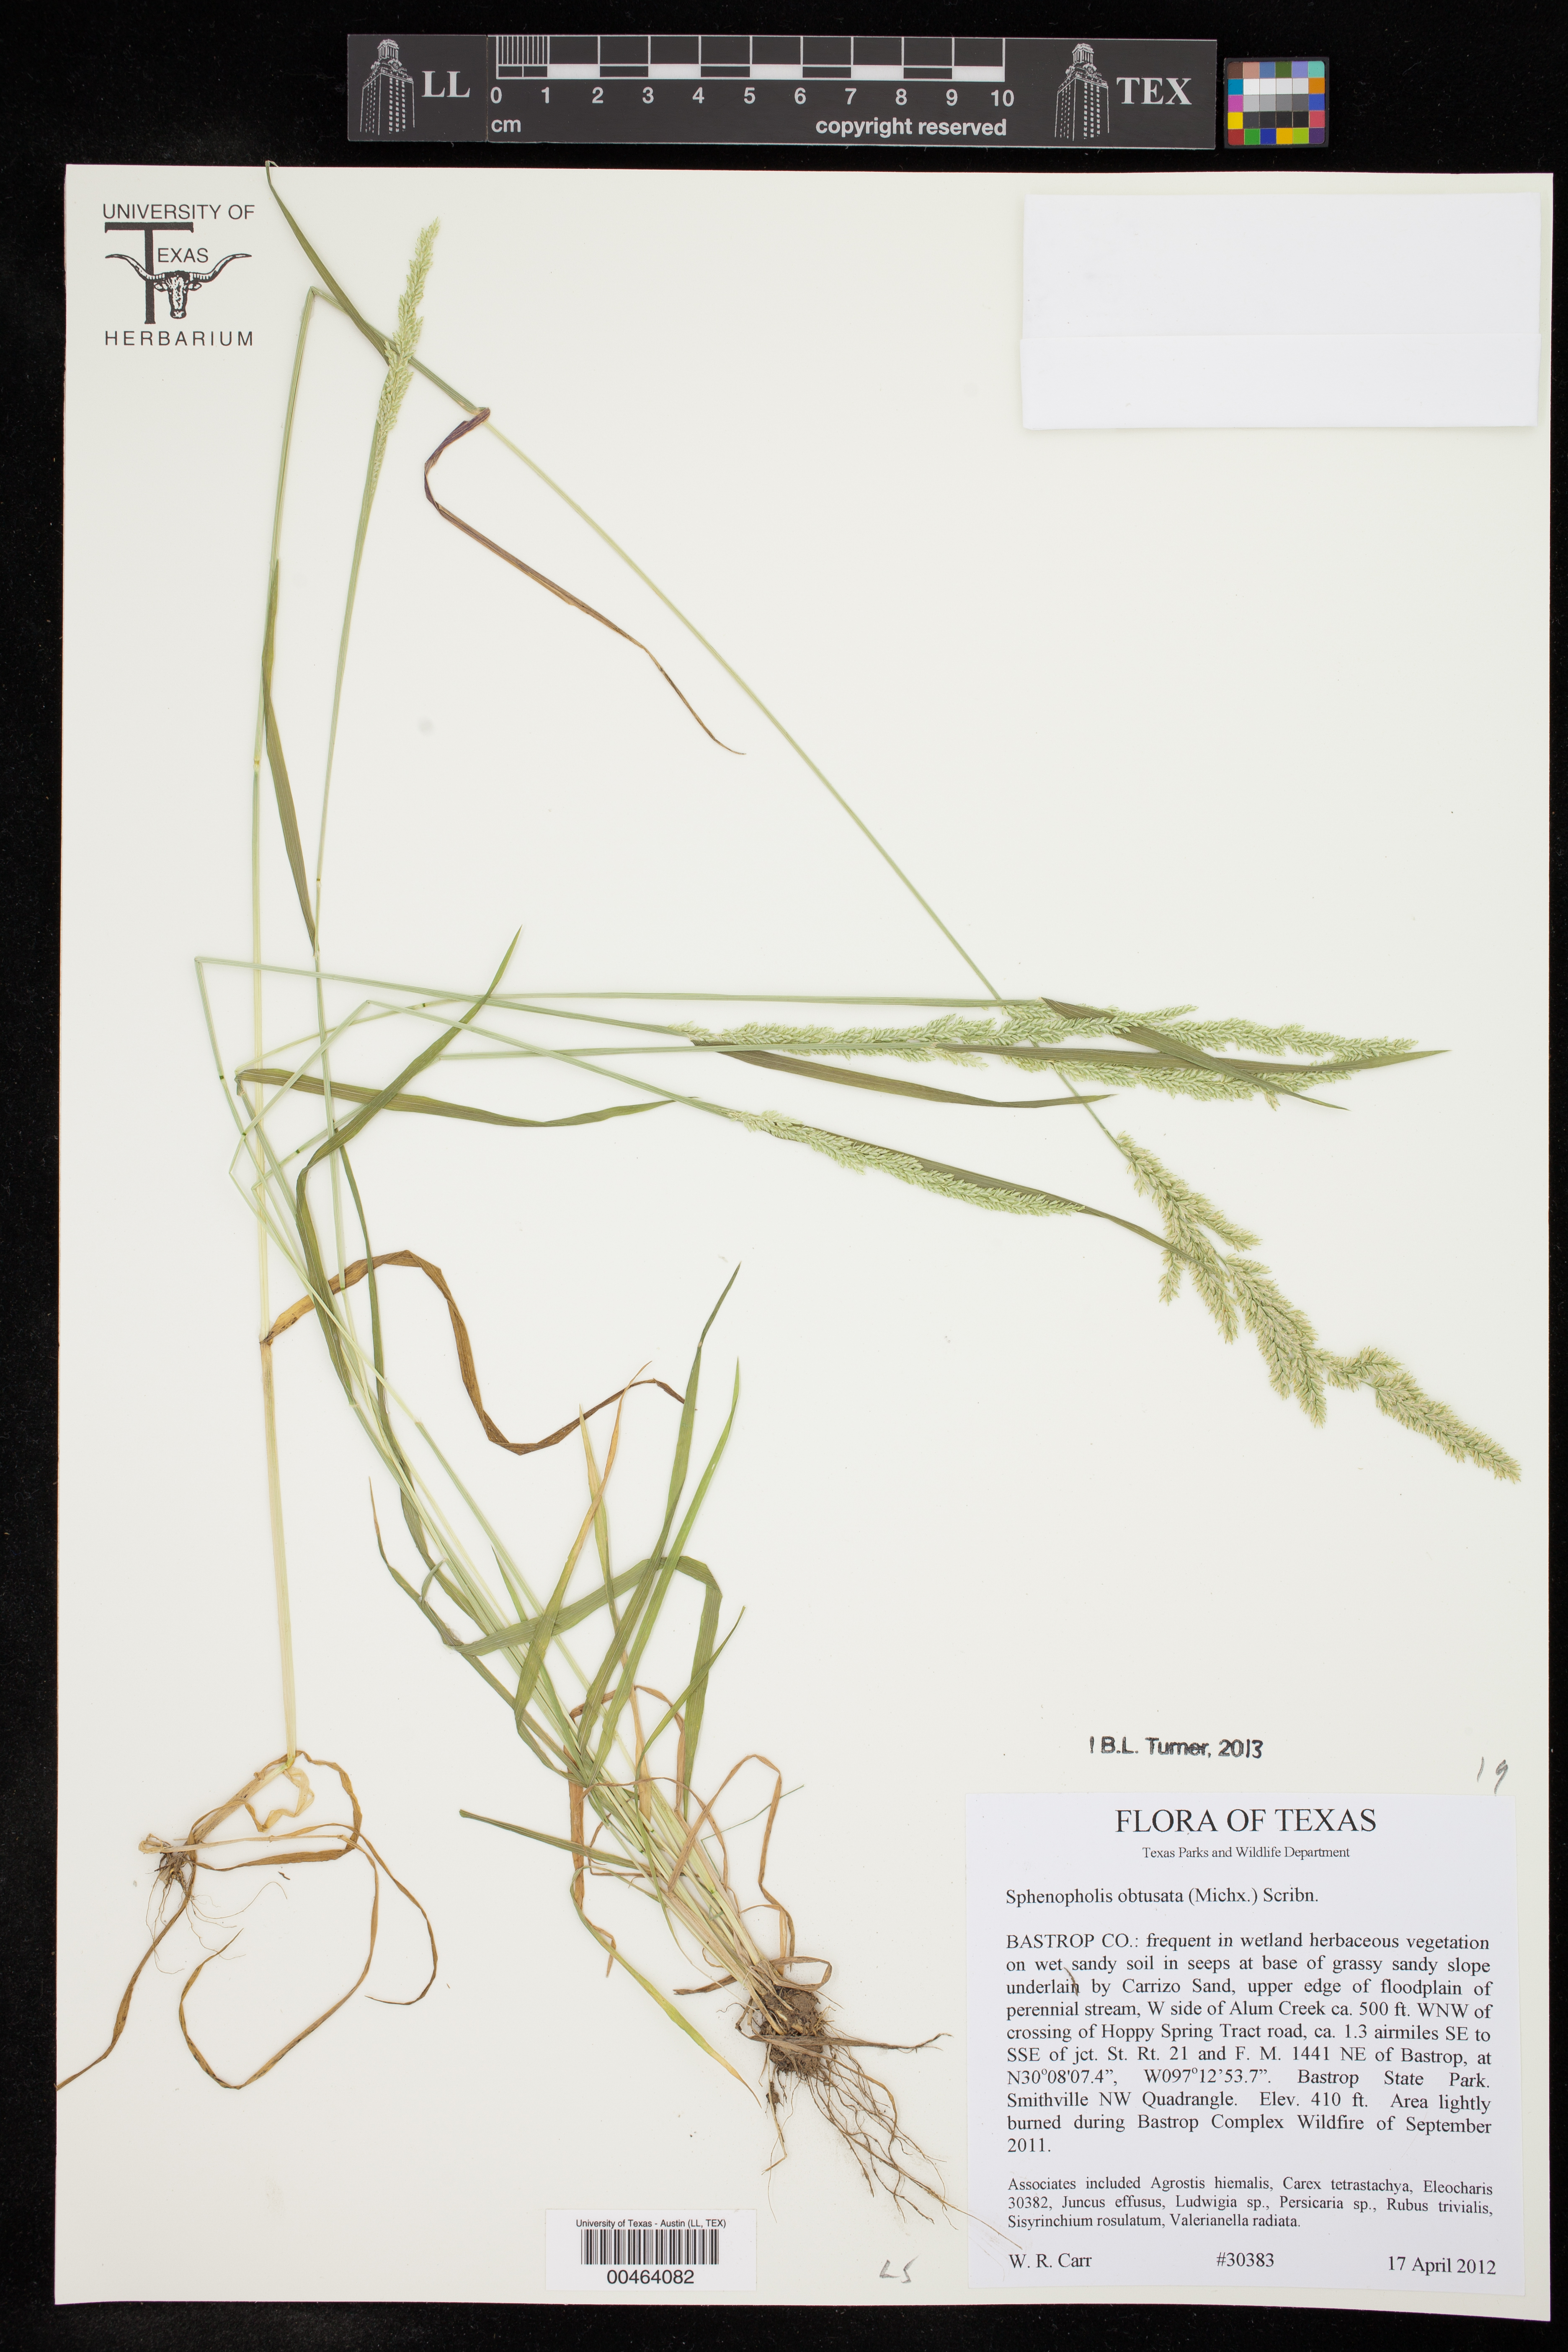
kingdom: Plantae
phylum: Tracheophyta
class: Liliopsida
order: Poales
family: Poaceae
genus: Sphenopholis
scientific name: Sphenopholis obtusata
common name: Prairie grass
